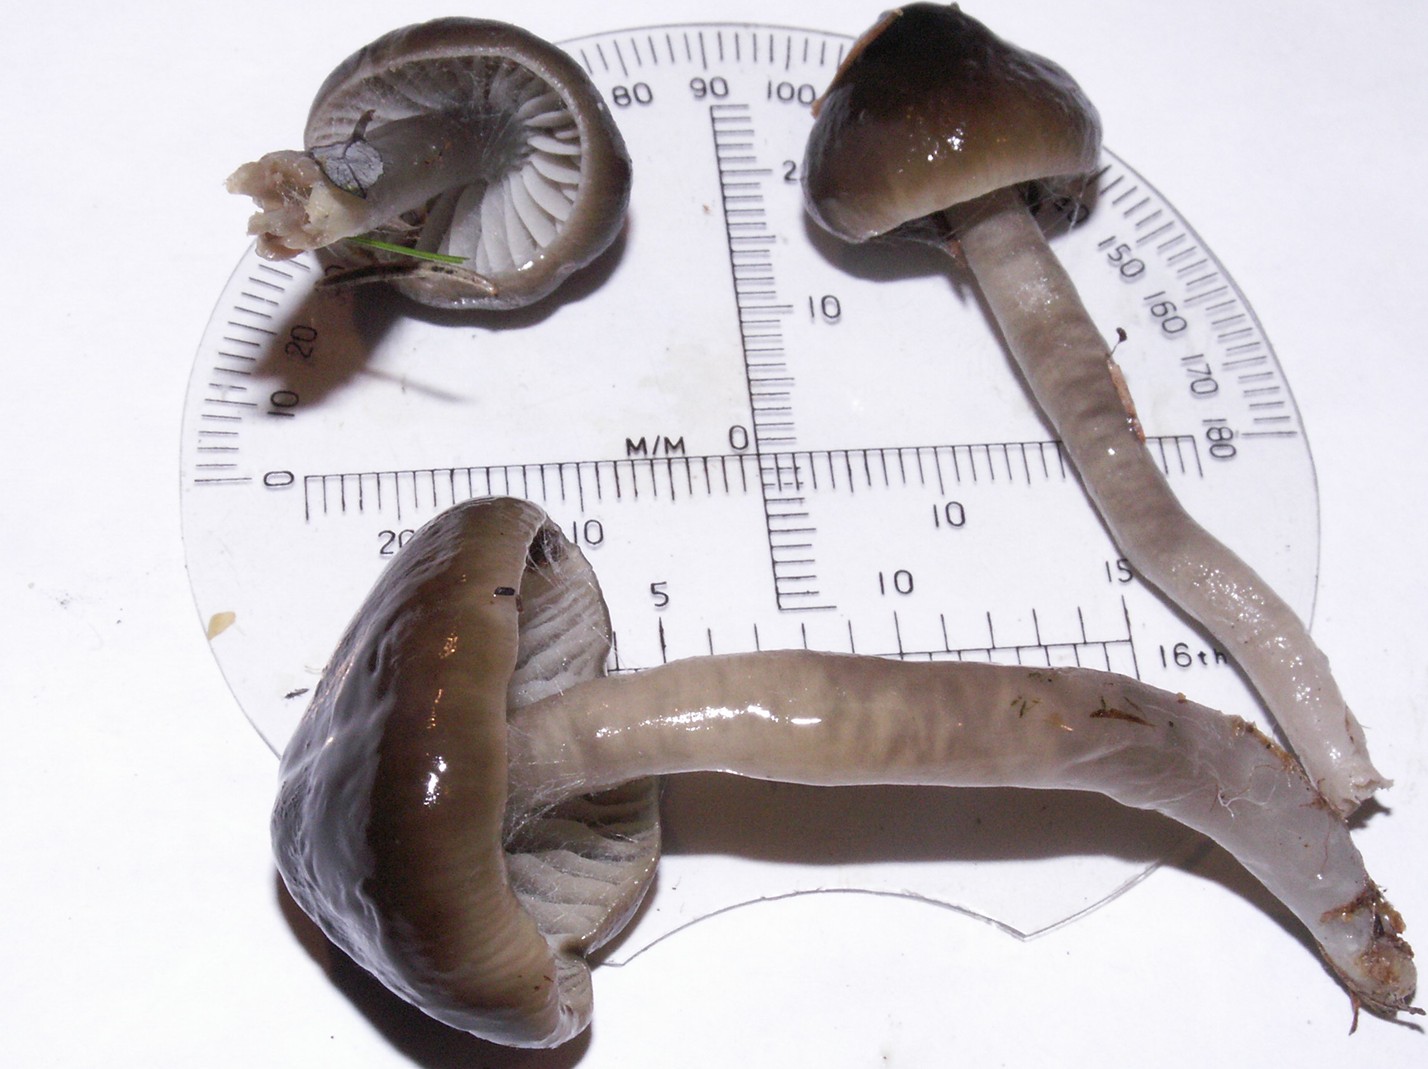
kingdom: Fungi
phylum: Basidiomycota
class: Agaricomycetes
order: Agaricales
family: Hygrophoraceae
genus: Gliophorus
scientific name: Gliophorus irrigatus
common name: slimet vokshat
